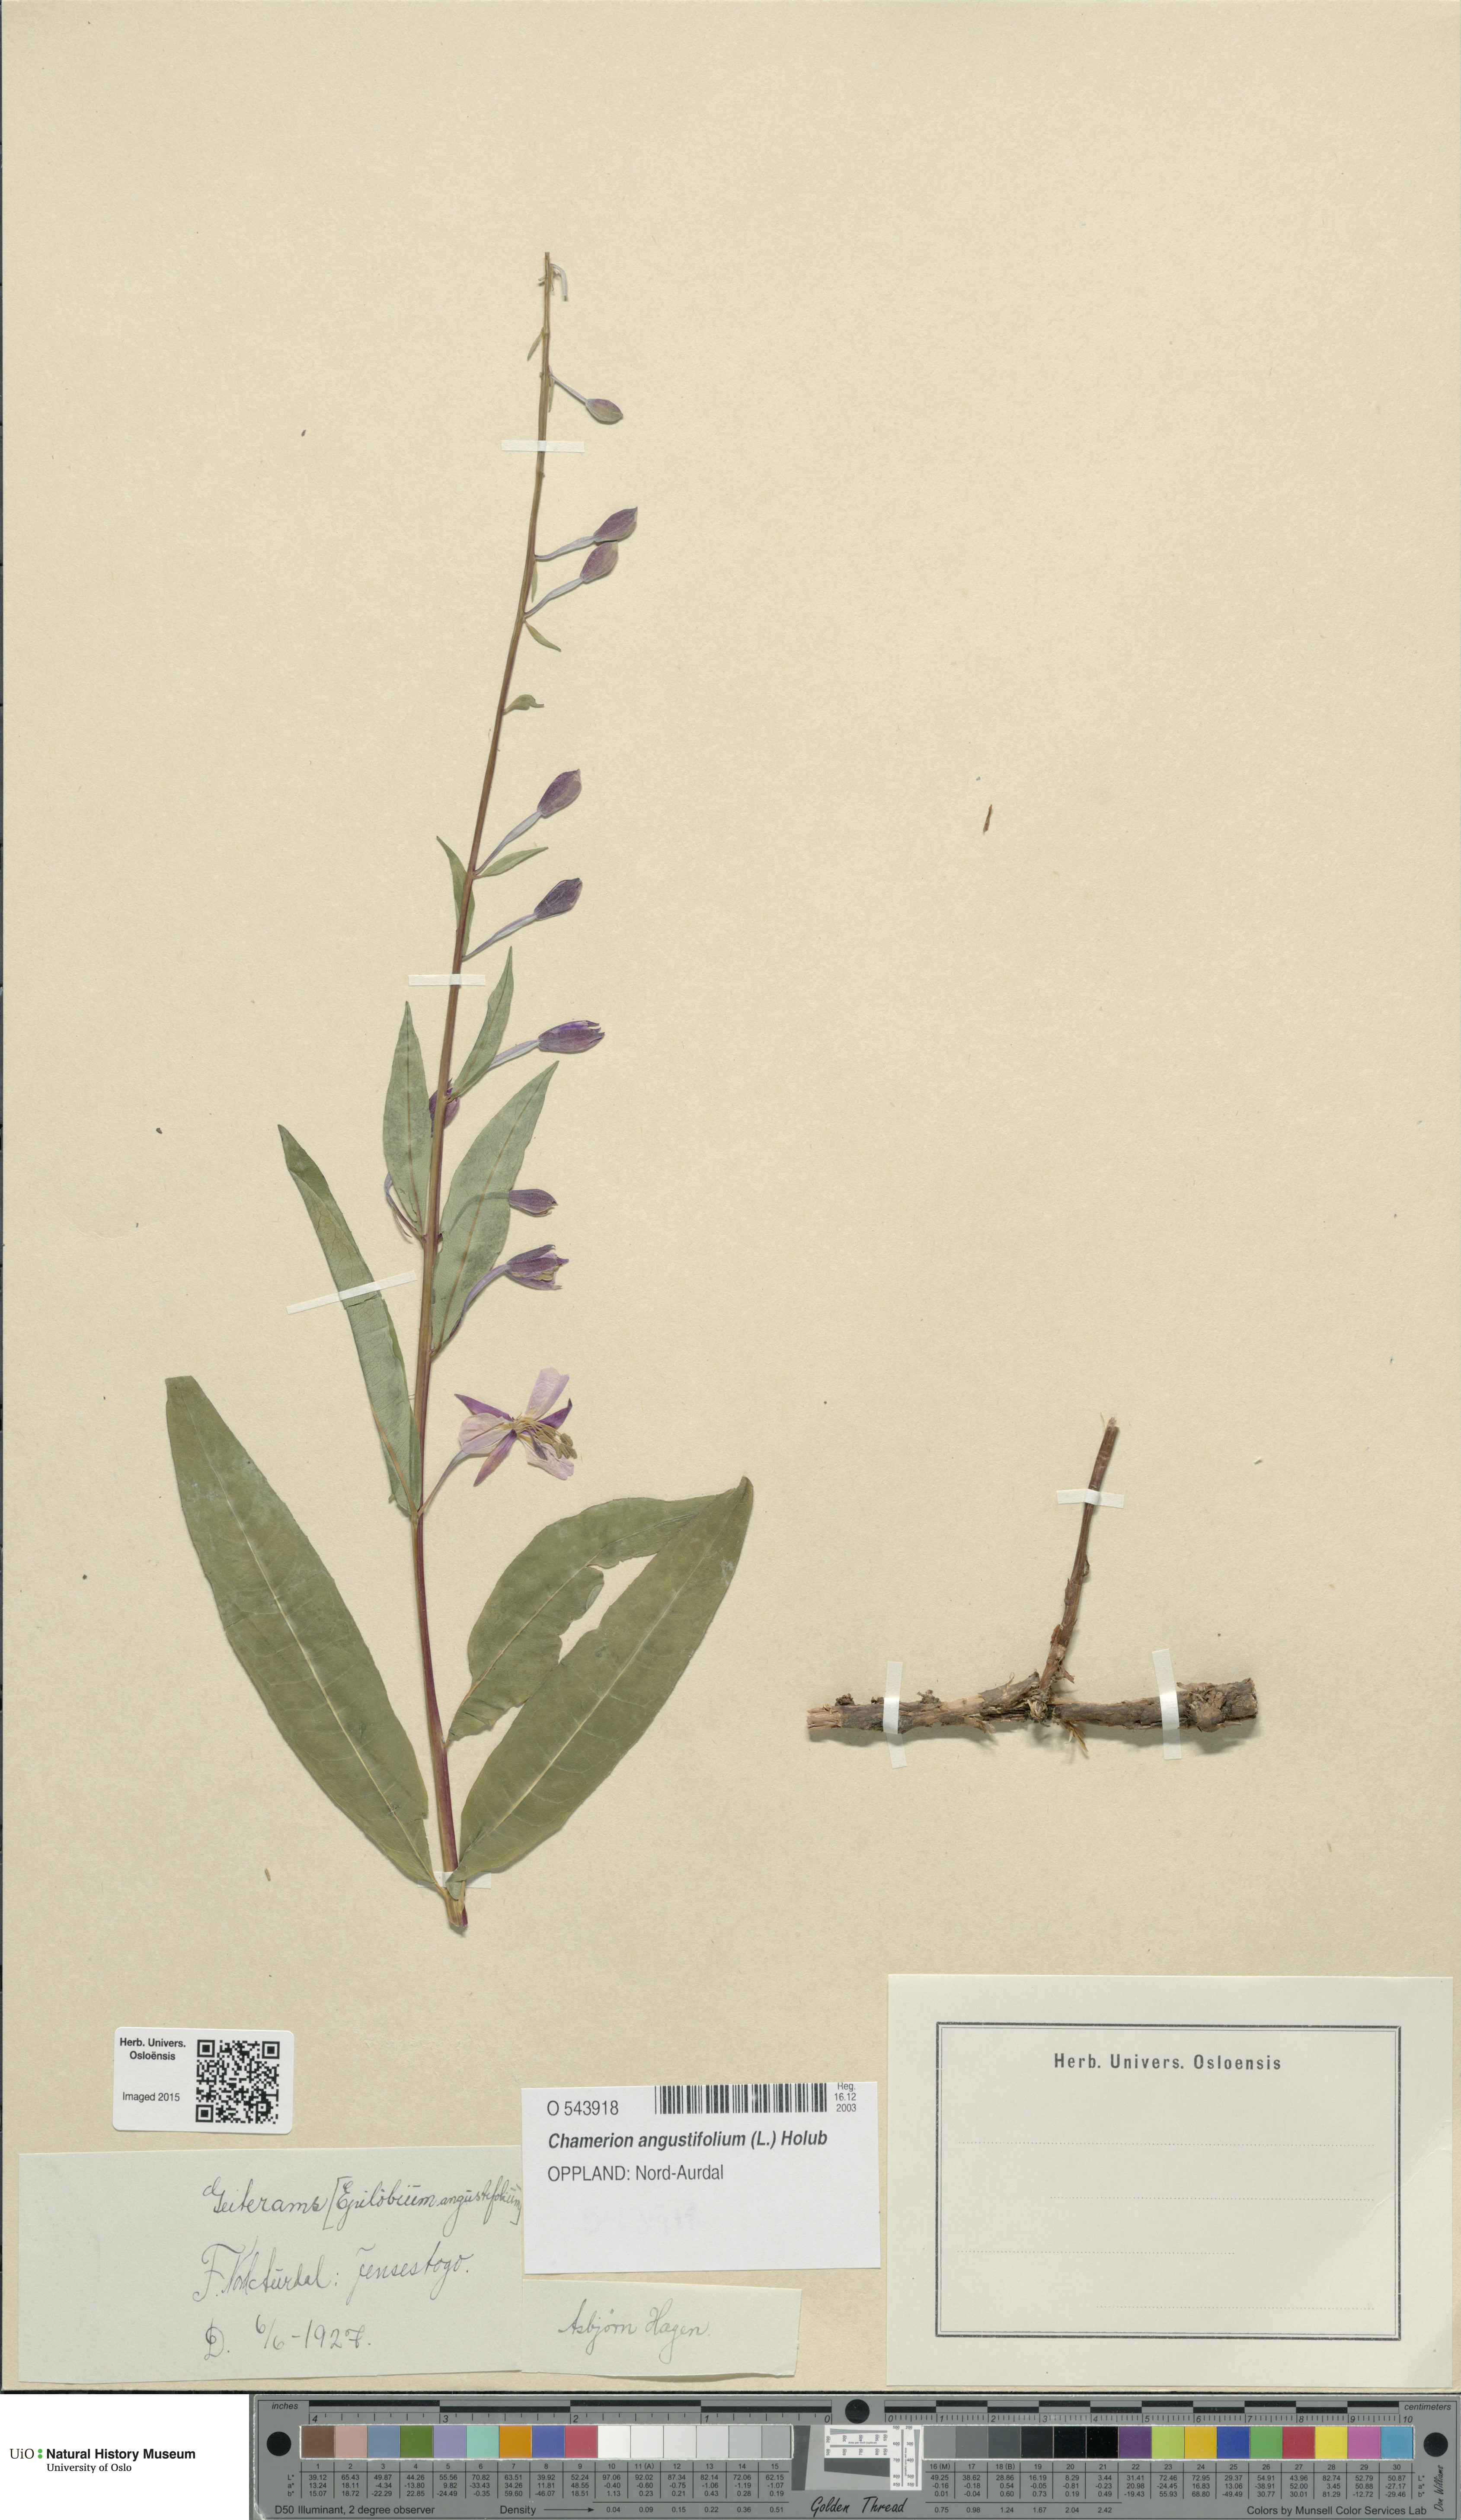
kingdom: Plantae
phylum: Tracheophyta
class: Magnoliopsida
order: Myrtales
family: Onagraceae
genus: Chamaenerion
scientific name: Chamaenerion angustifolium
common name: Fireweed
